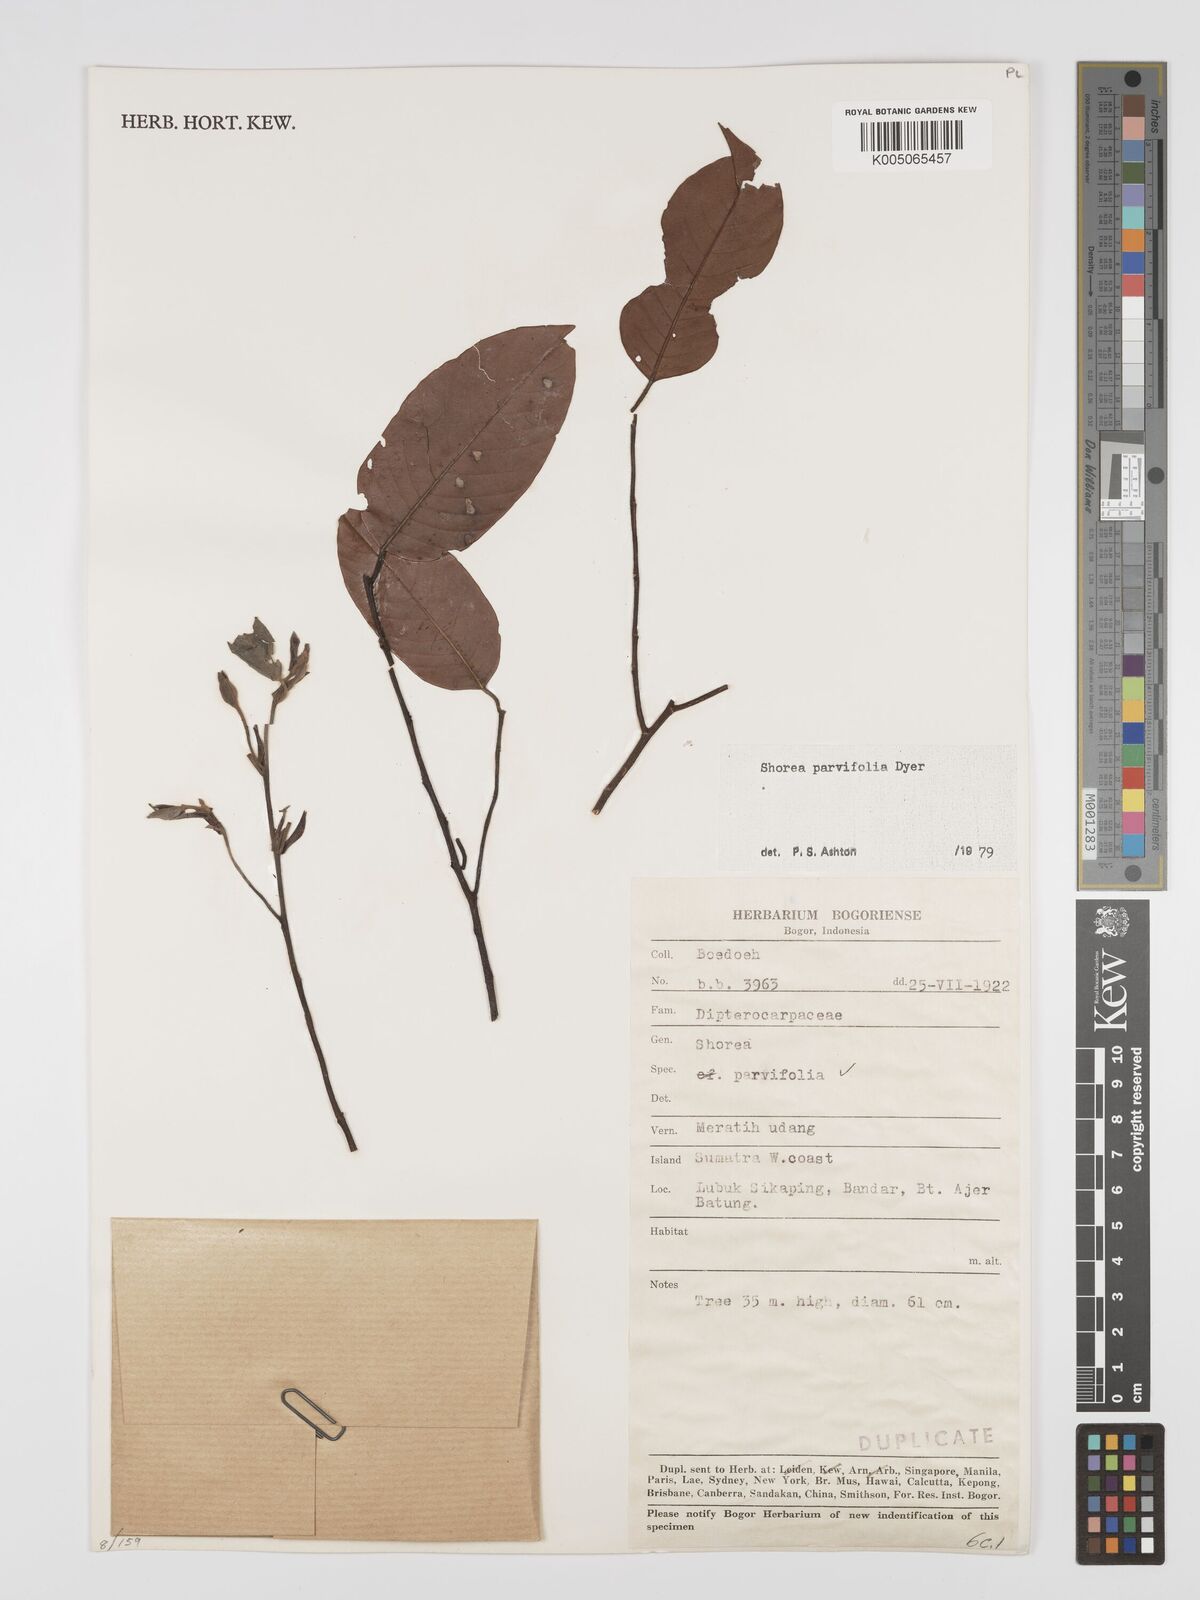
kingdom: Plantae
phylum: Tracheophyta
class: Magnoliopsida
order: Malvales
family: Dipterocarpaceae
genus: Shorea
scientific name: Shorea parvifolia
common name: Light red meranti
